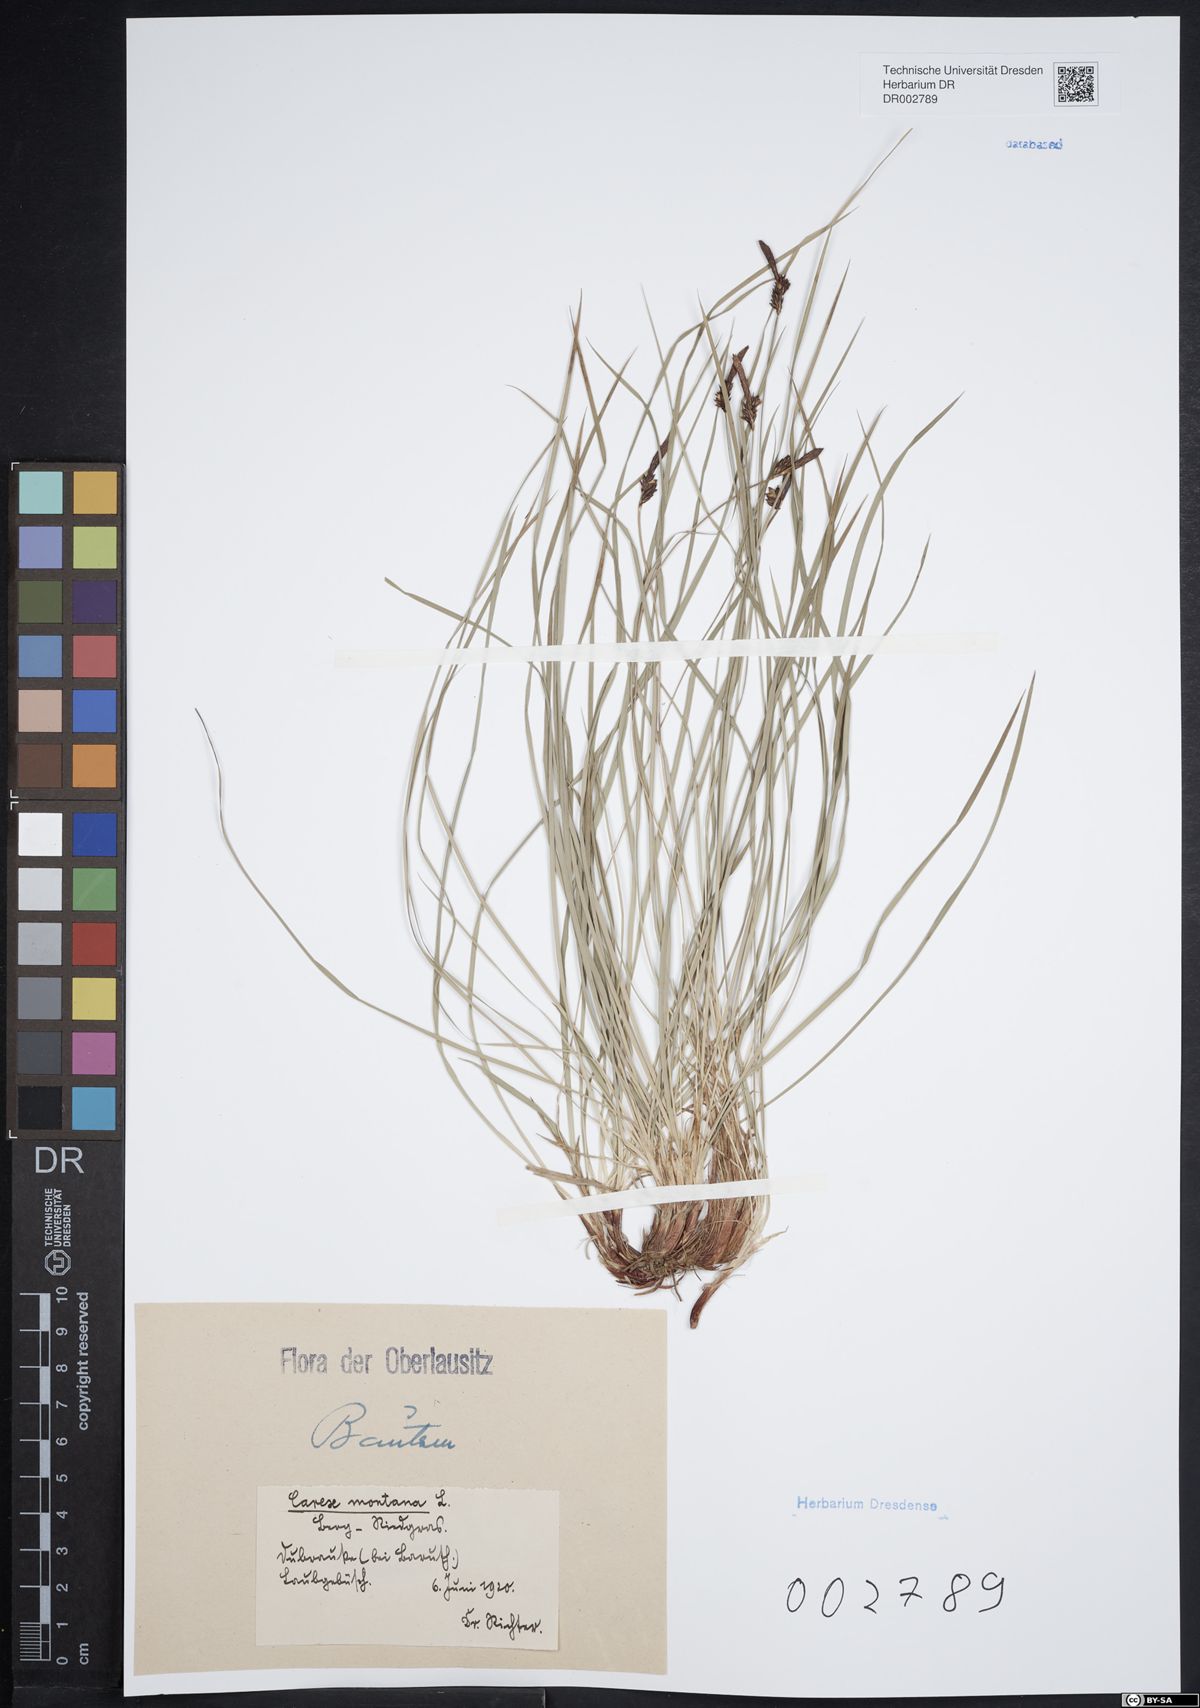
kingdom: Plantae
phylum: Tracheophyta
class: Liliopsida
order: Poales
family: Cyperaceae
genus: Carex
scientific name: Carex montana
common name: Soft-leaved sedge
